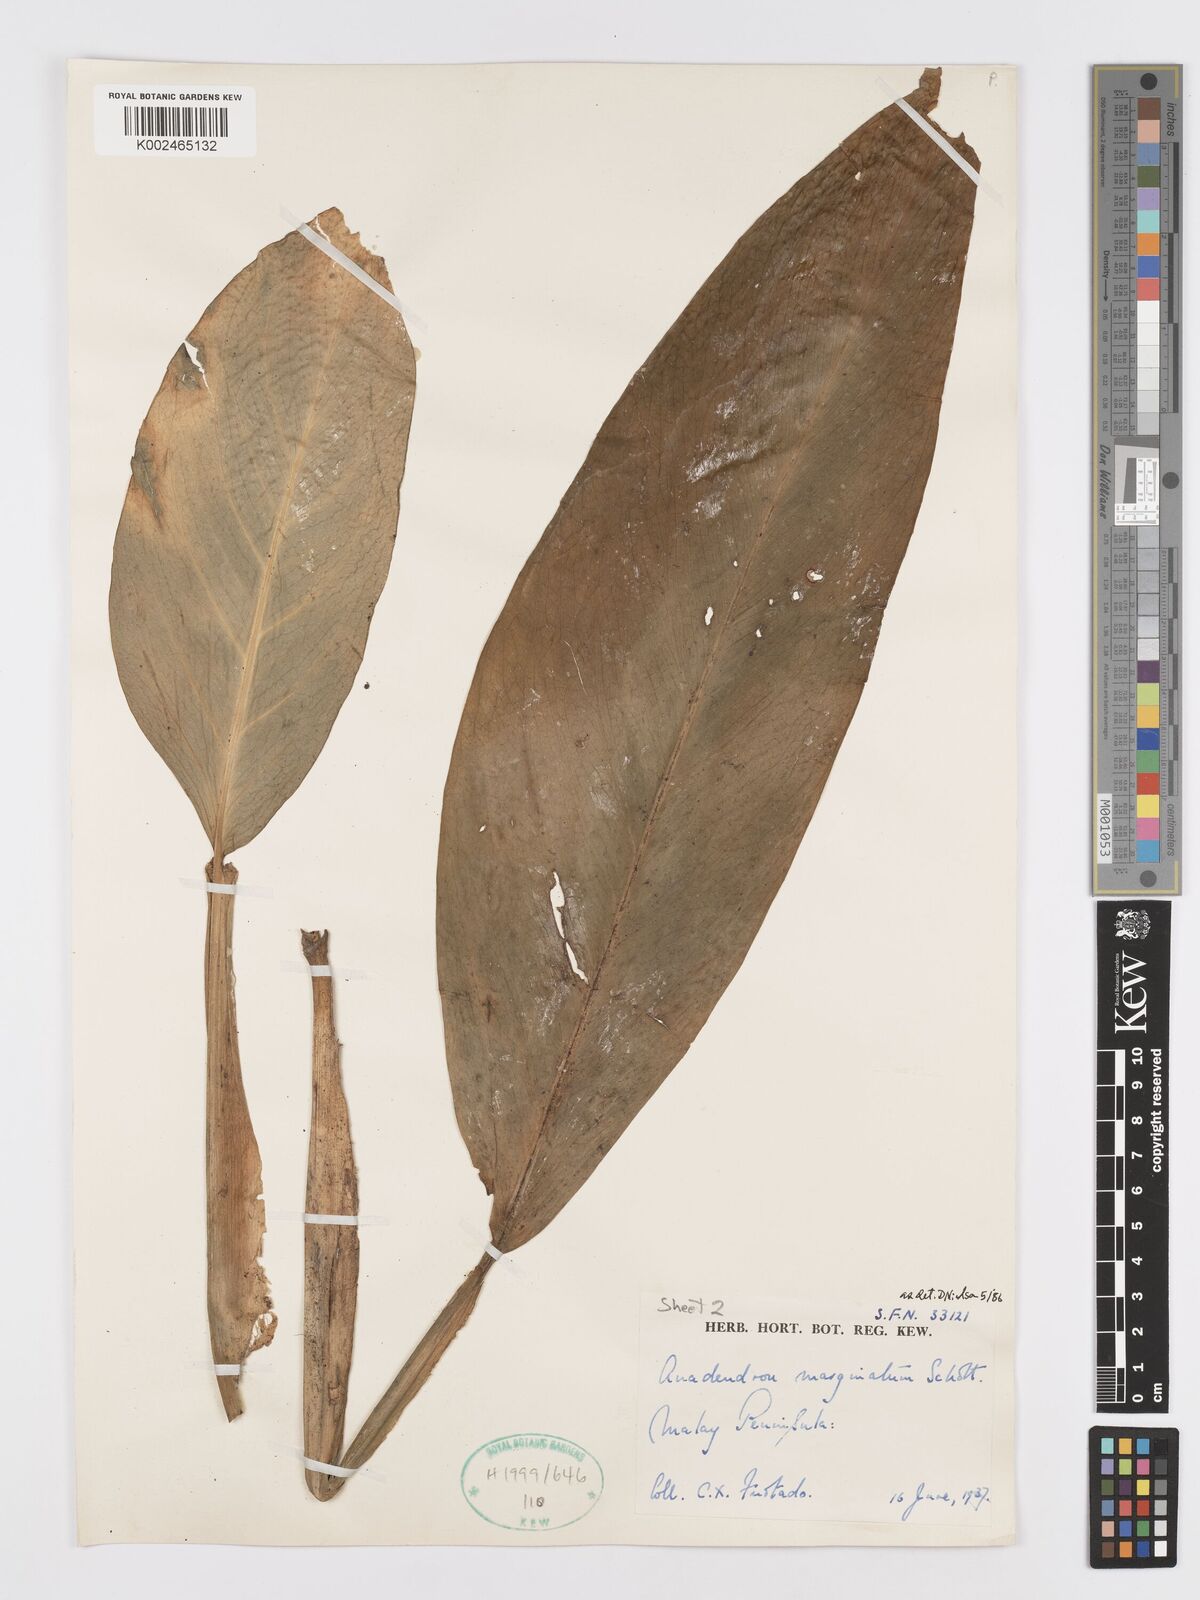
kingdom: Plantae
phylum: Tracheophyta
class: Liliopsida
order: Alismatales
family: Araceae
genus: Anadendrum
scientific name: Anadendrum marginatum
